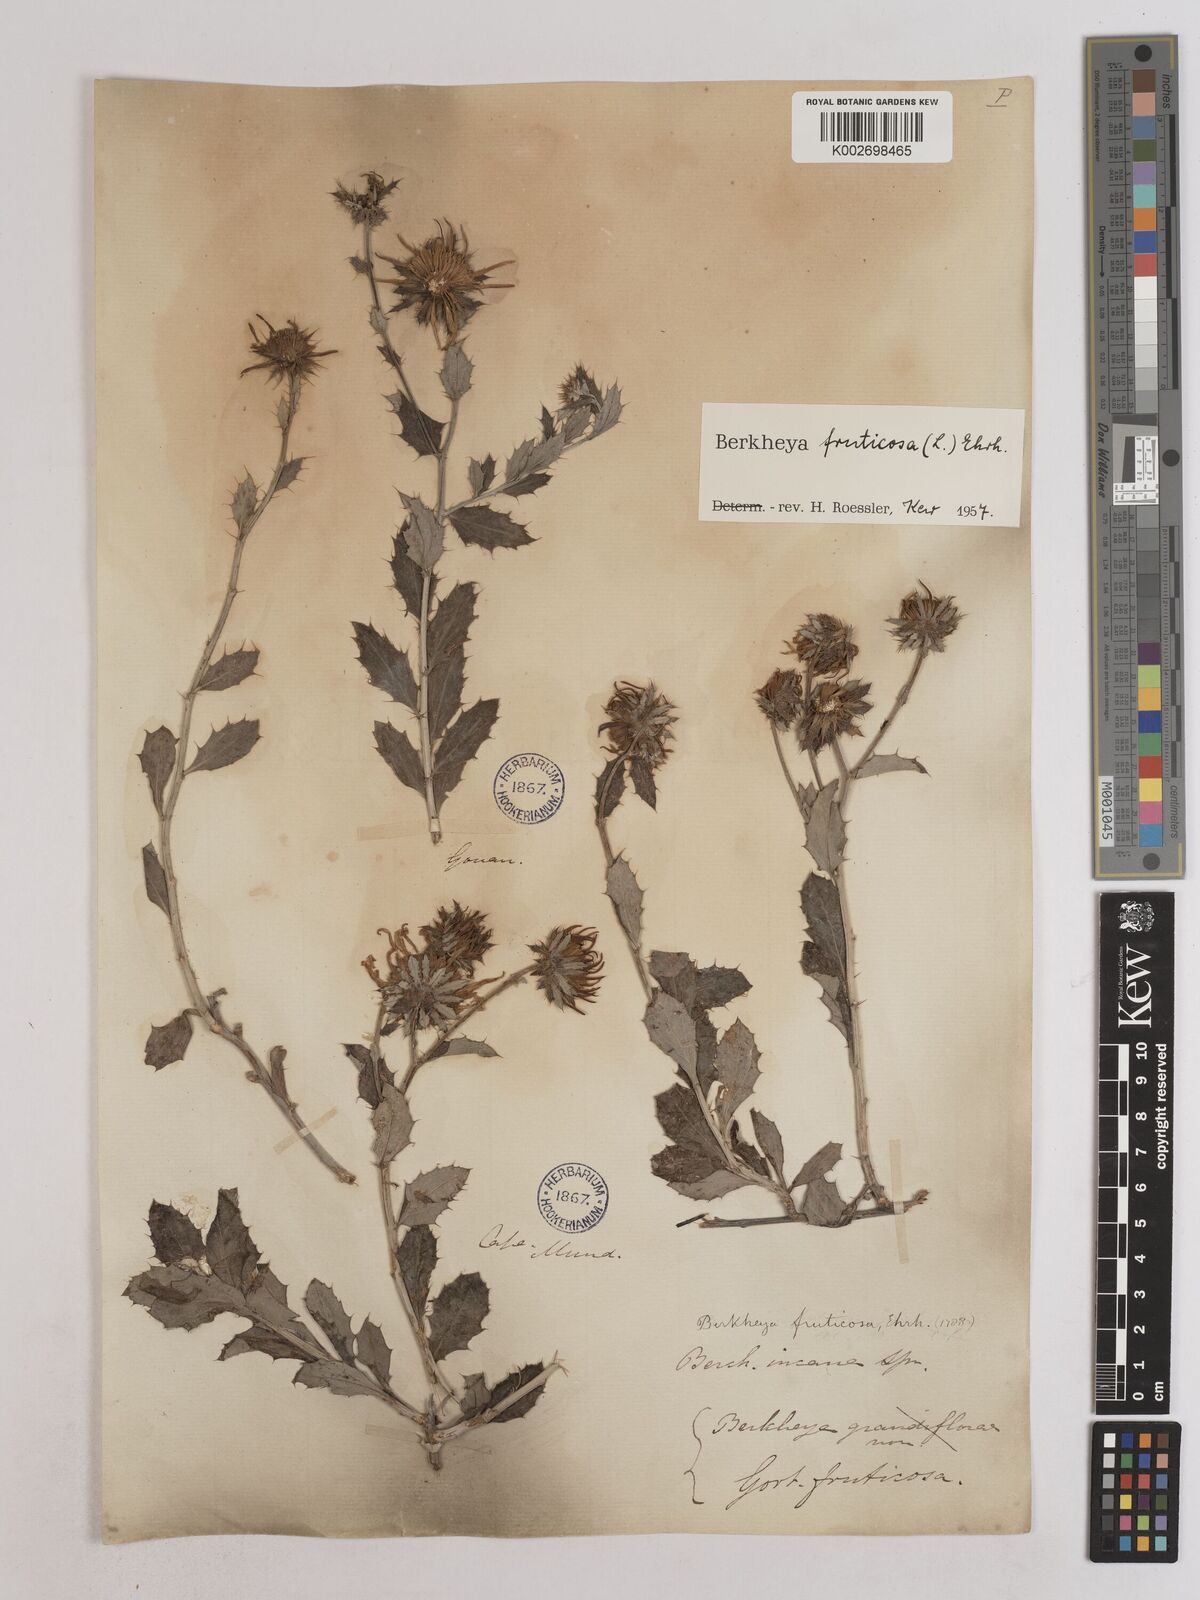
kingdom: Plantae
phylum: Tracheophyta
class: Magnoliopsida
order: Asterales
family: Asteraceae
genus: Berkheya
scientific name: Berkheya fruticosa
